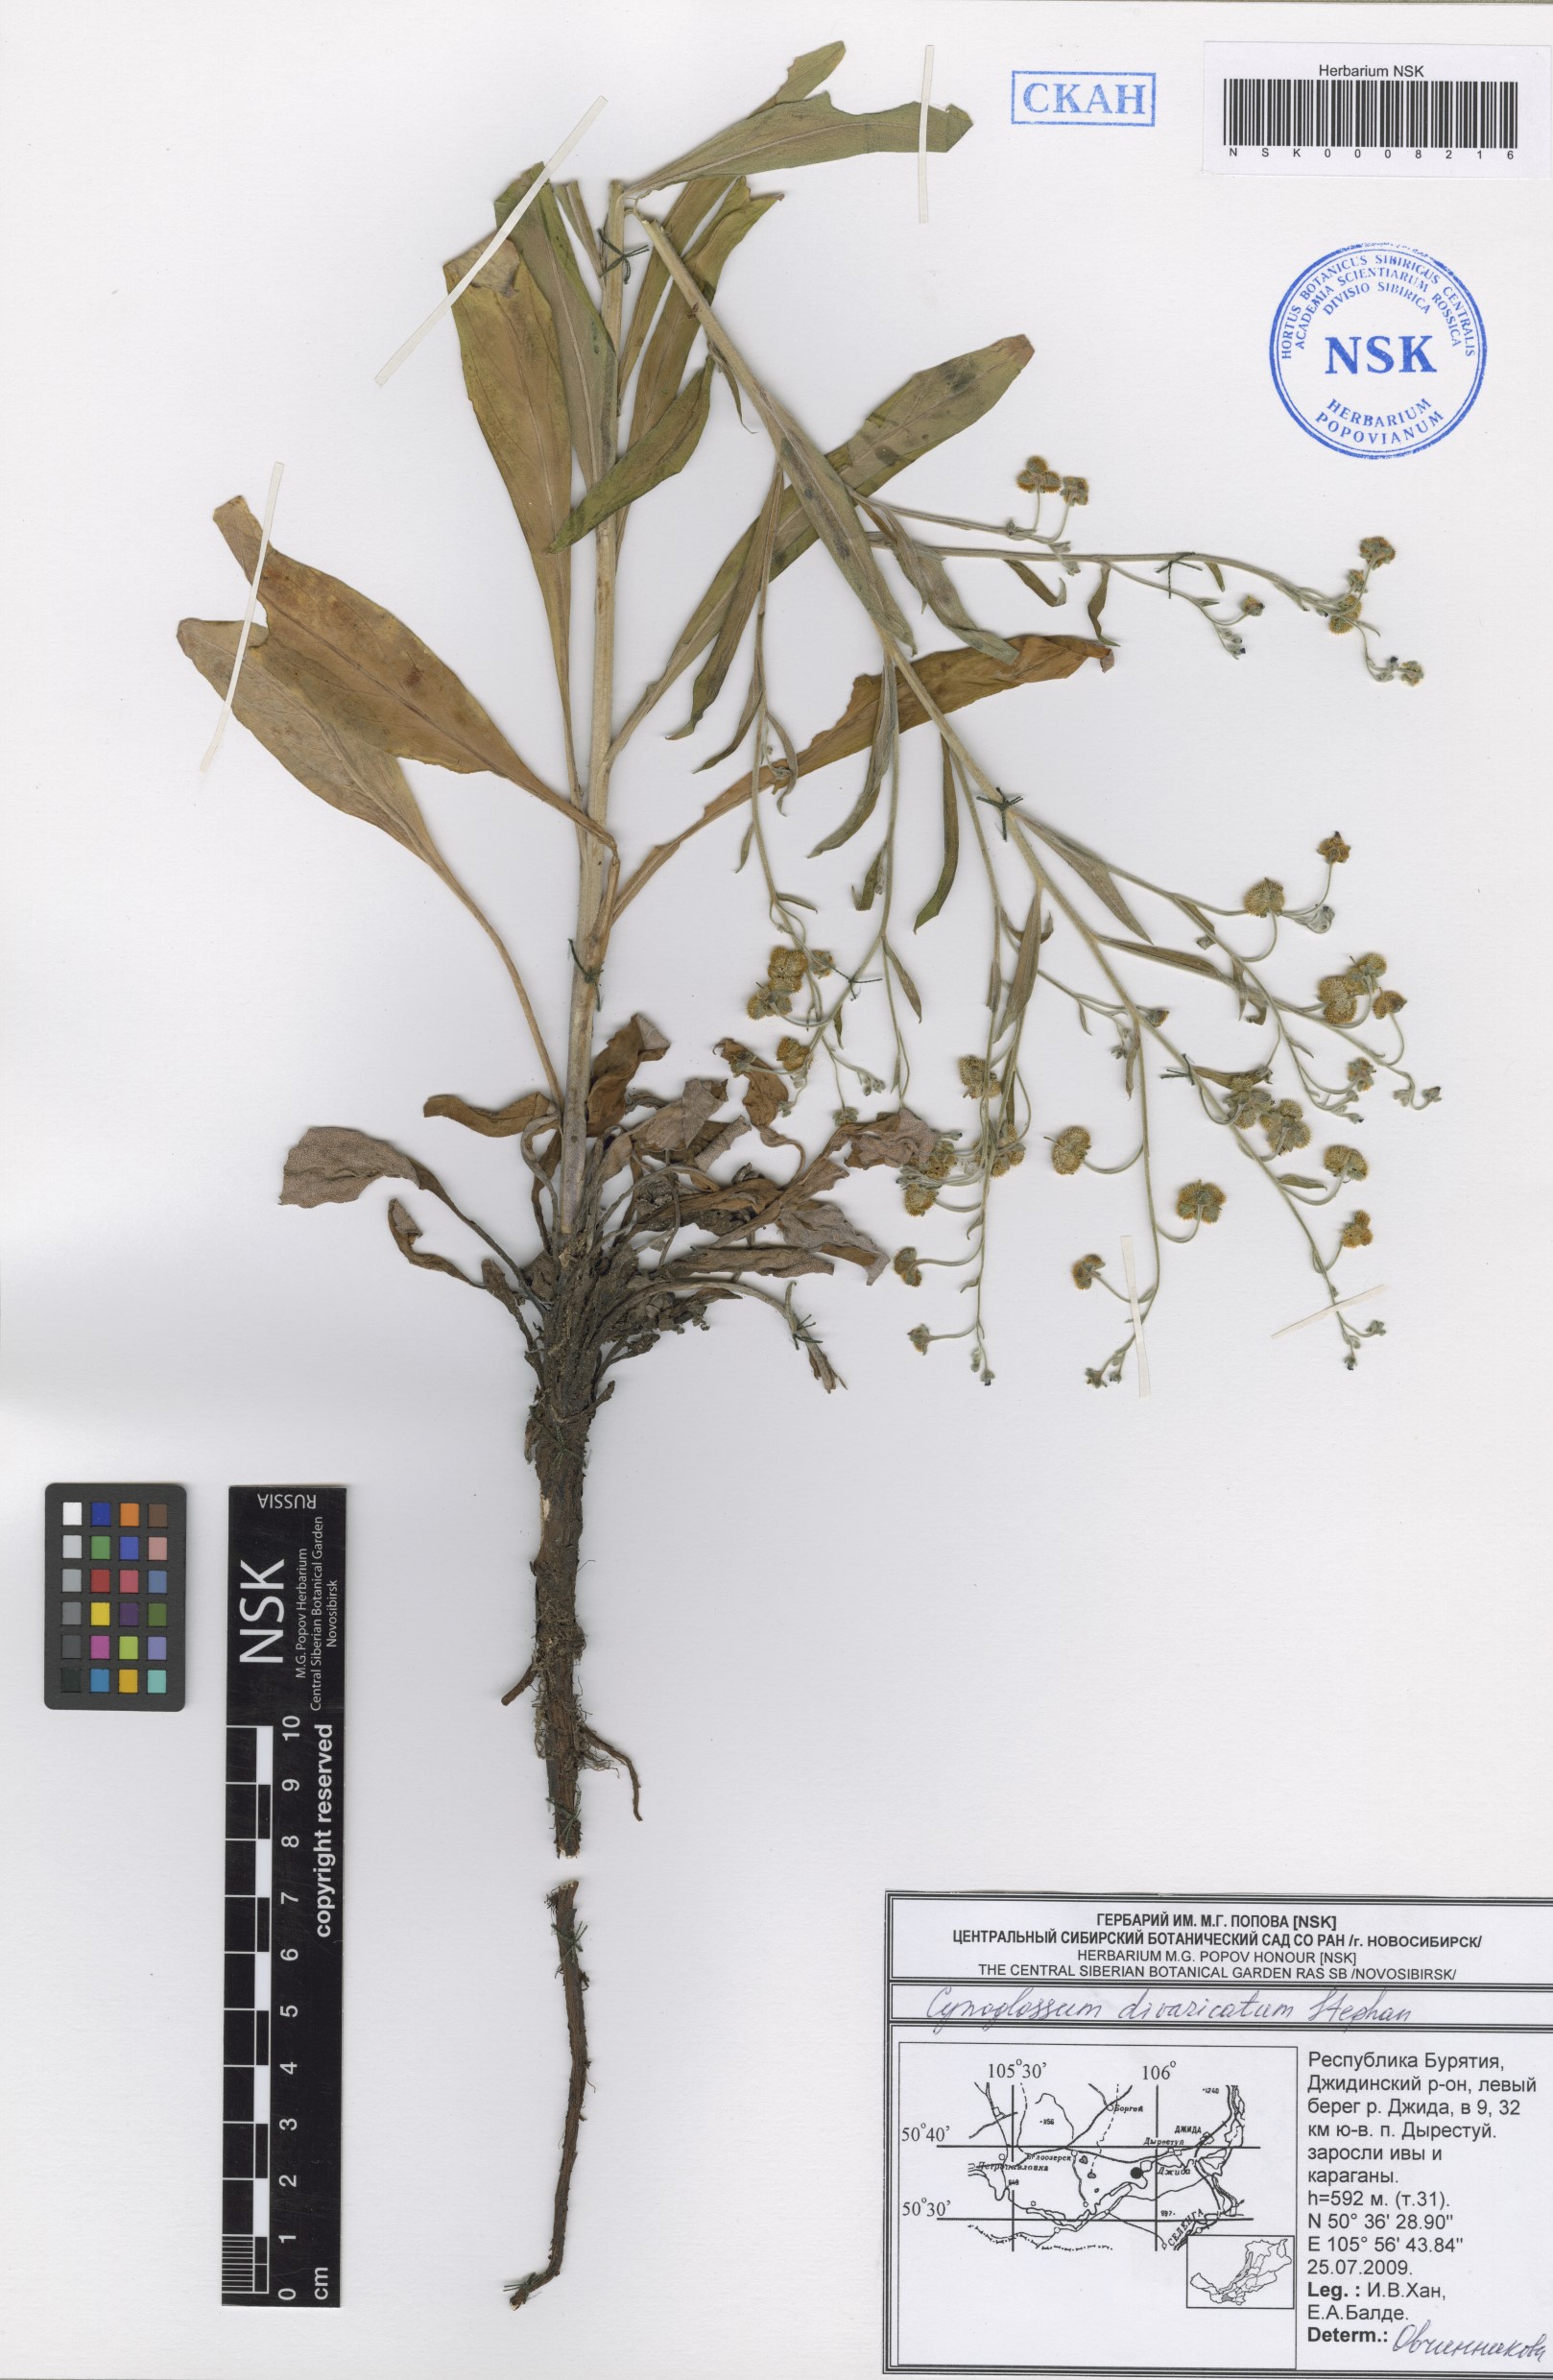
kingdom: Plantae
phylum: Tracheophyta
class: Magnoliopsida
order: Boraginales
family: Boraginaceae
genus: Cynoglossum
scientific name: Cynoglossum divaricatum
